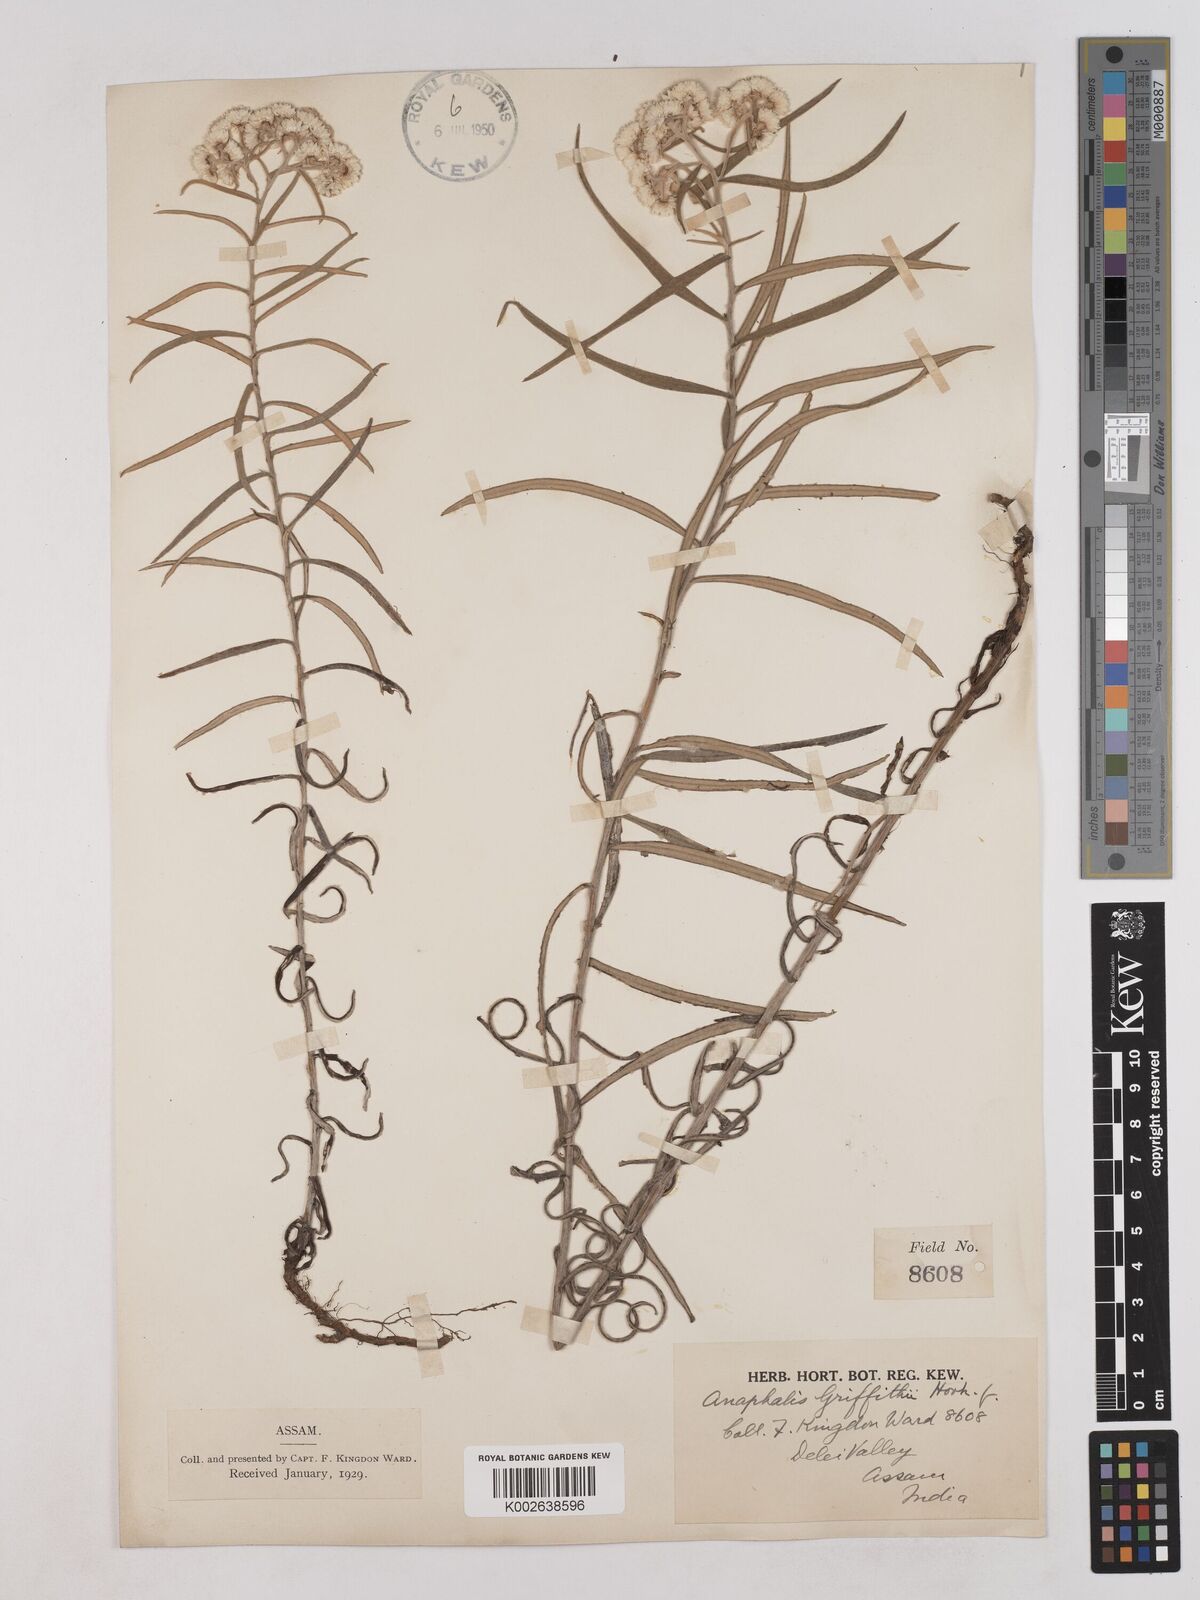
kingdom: Plantae
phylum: Tracheophyta
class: Magnoliopsida
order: Asterales
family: Asteraceae
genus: Anaphalis
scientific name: Anaphalis griffithii
